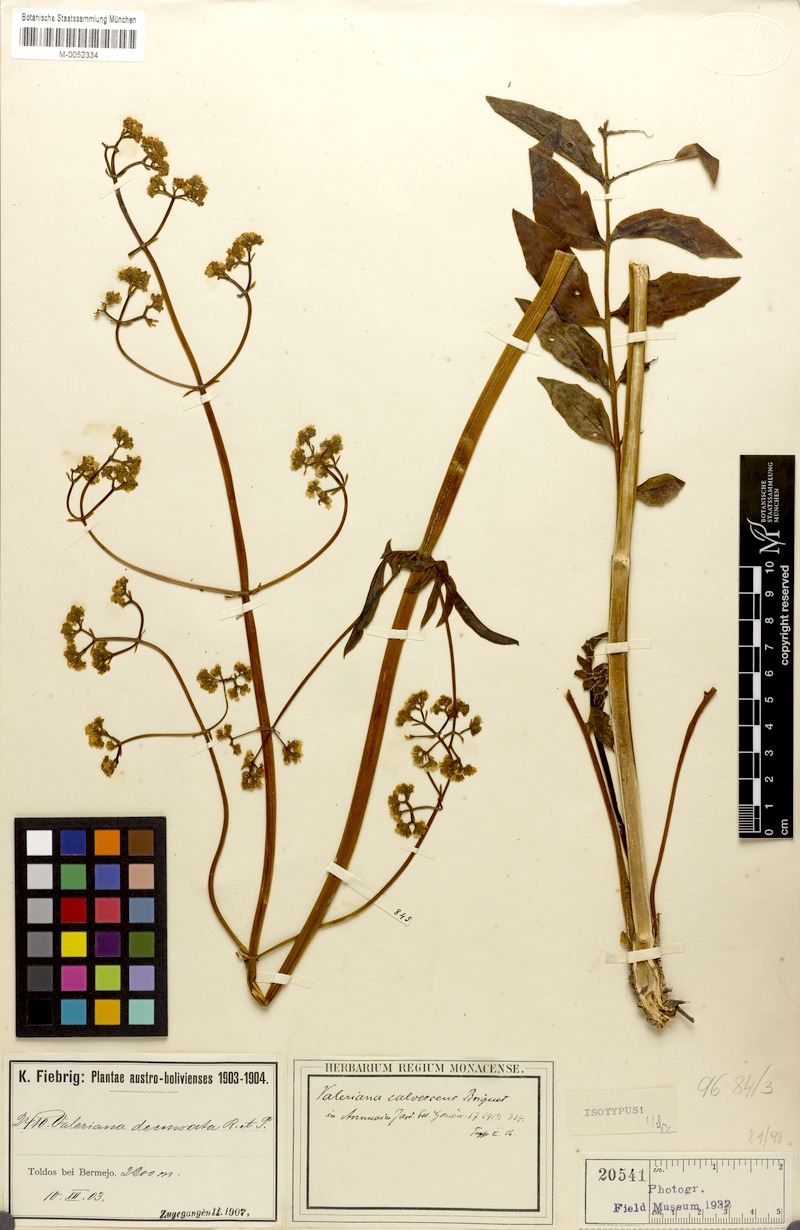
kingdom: Plantae
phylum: Tracheophyta
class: Magnoliopsida
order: Dipsacales
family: Caprifoliaceae
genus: Valeriana
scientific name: Valeriana calvescens
